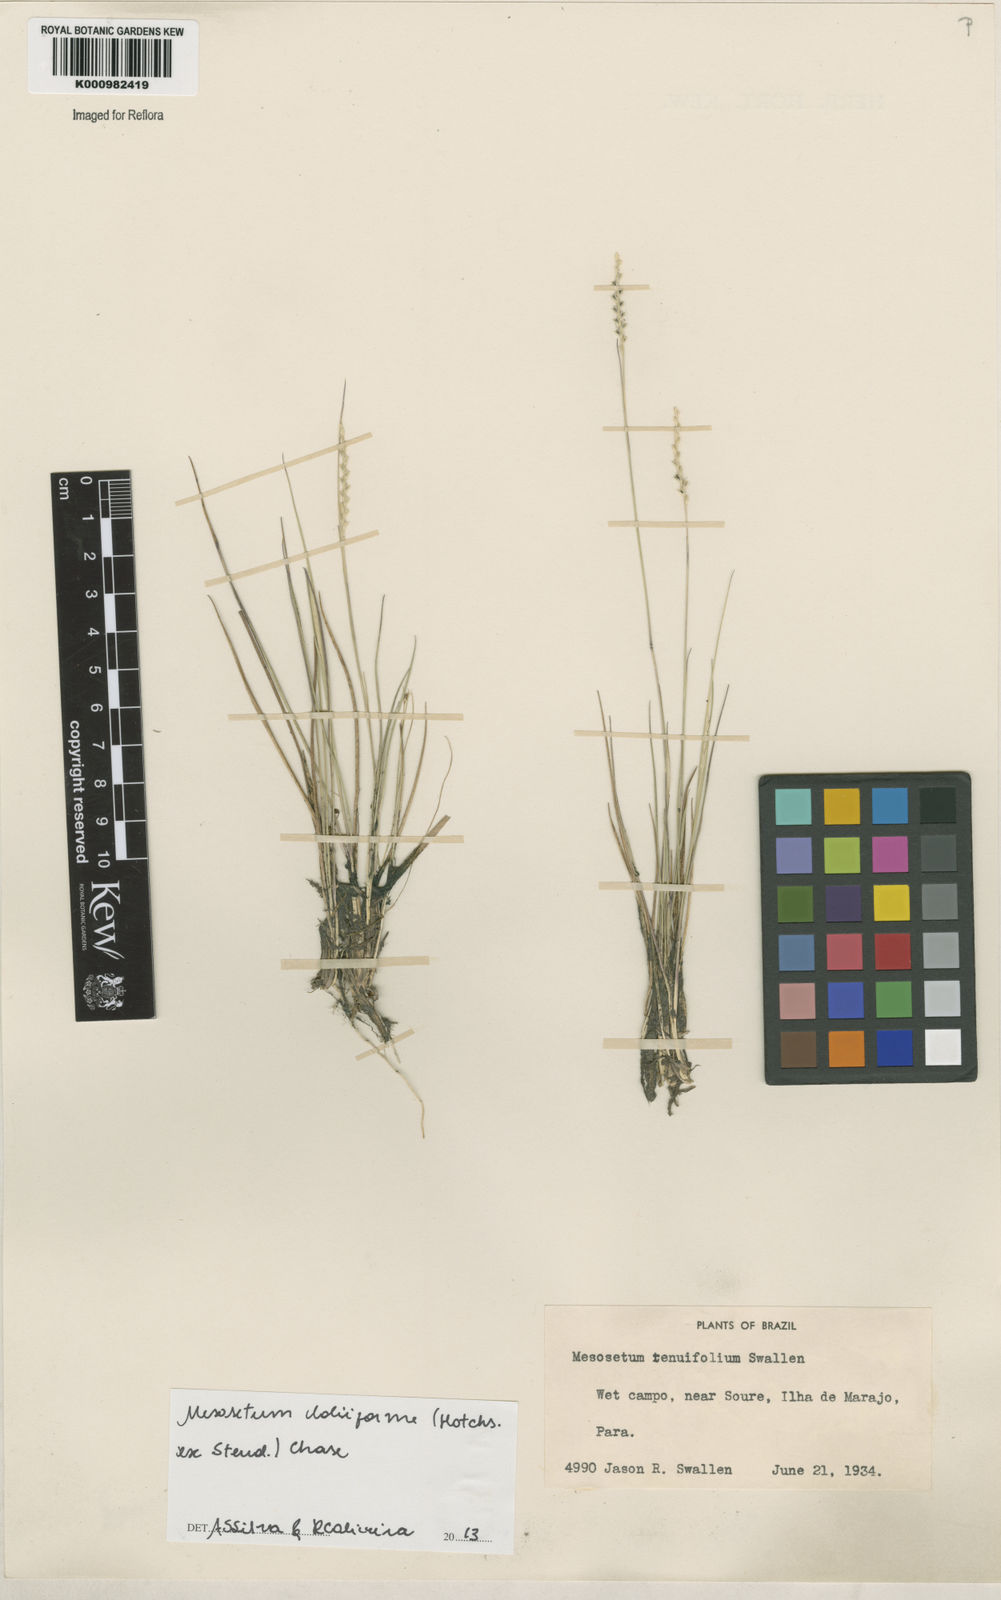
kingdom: Plantae
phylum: Tracheophyta
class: Liliopsida
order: Poales
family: Poaceae
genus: Mesosetum
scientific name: Mesosetum
